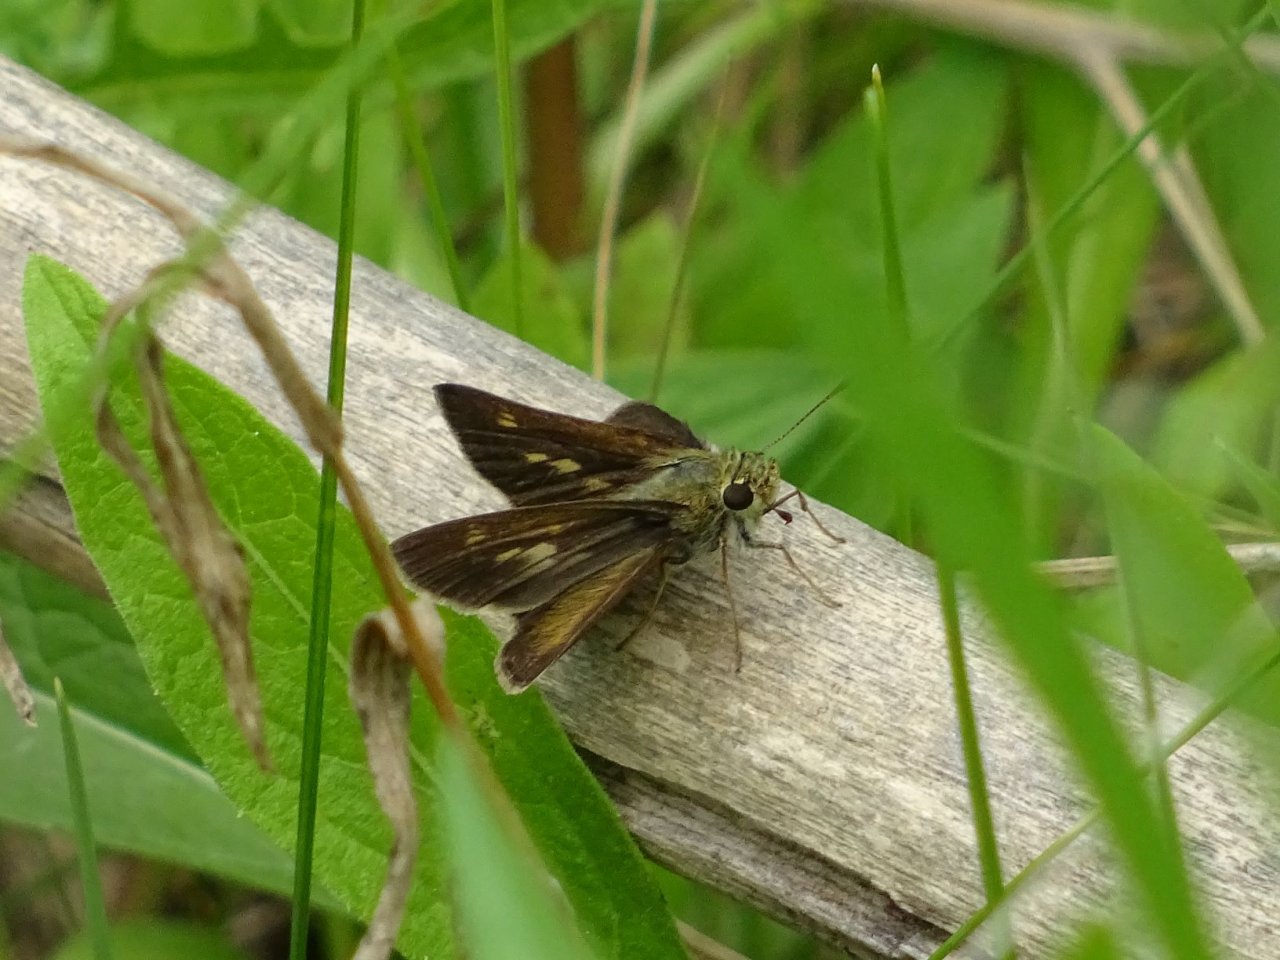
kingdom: Animalia
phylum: Arthropoda
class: Insecta
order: Lepidoptera
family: Hesperiidae
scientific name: Hesperiidae
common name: Skippers
